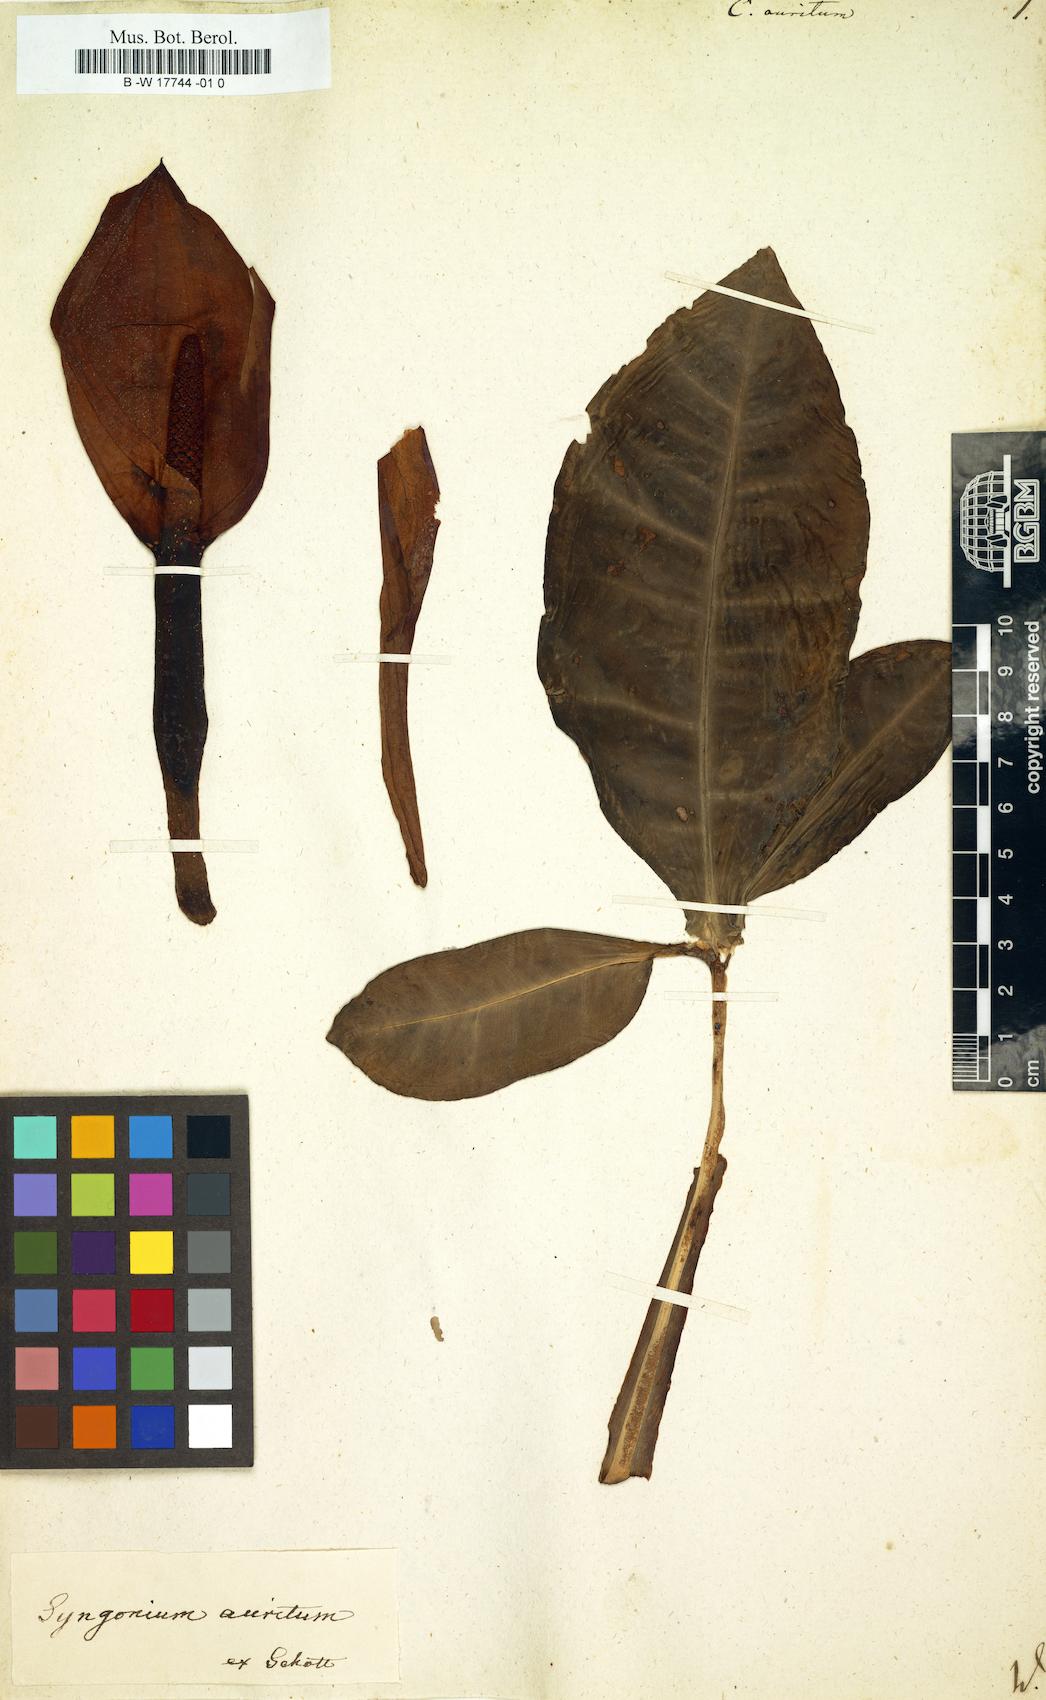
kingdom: Plantae
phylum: Tracheophyta
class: Liliopsida
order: Alismatales
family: Araceae
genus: Syngonium
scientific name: Syngonium auritum
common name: Five-fingers
